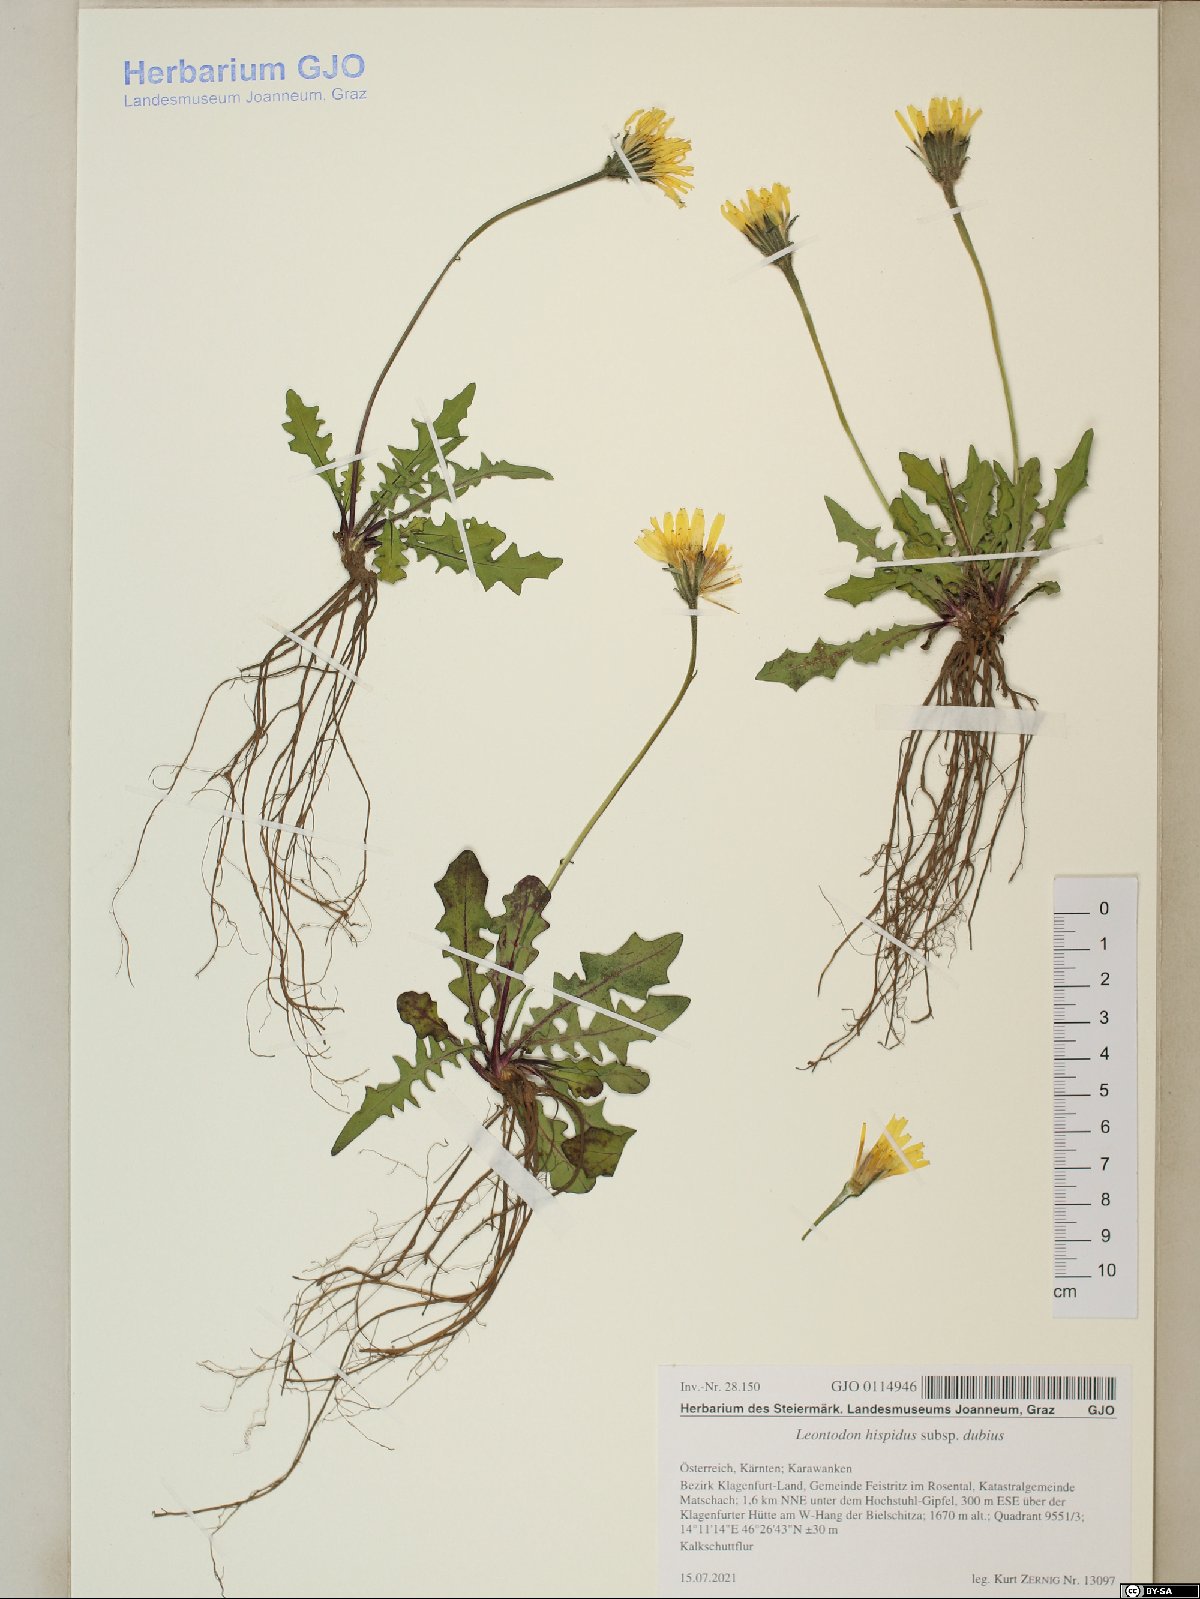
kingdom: Plantae
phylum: Tracheophyta
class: Magnoliopsida
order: Asterales
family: Asteraceae
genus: Leontodon
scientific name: Leontodon hispidus
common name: Rough hawkbit
